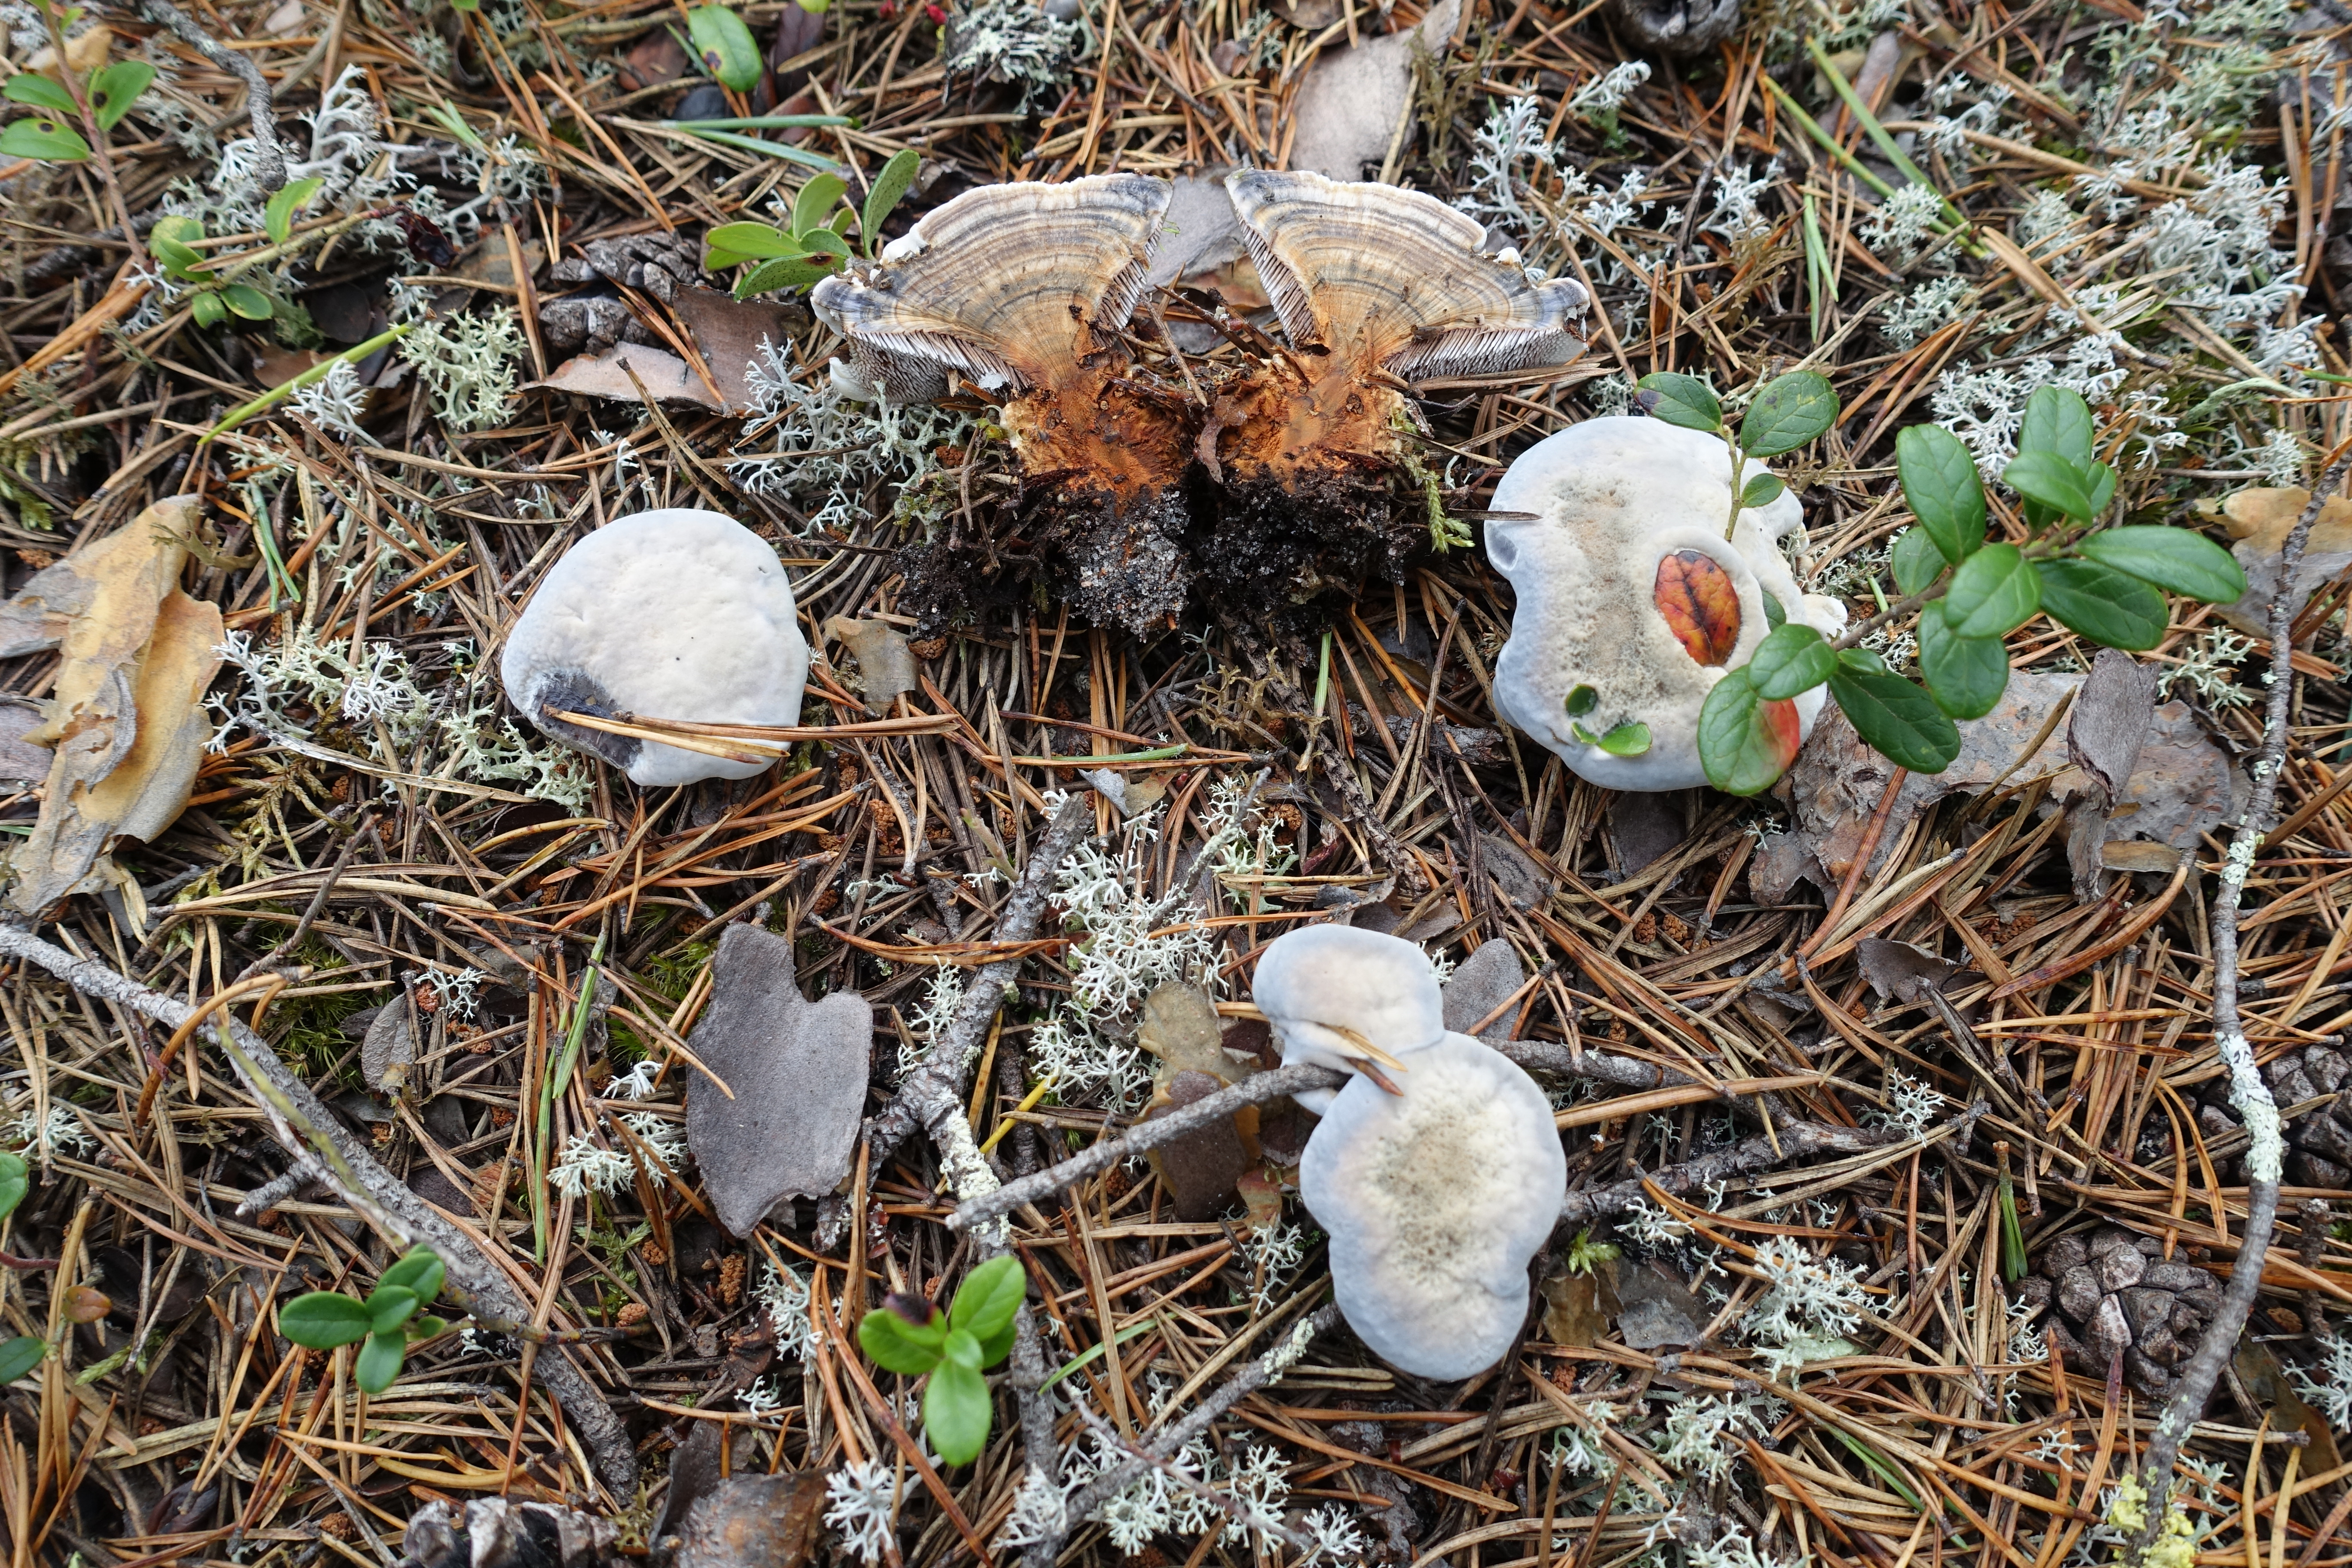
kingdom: Fungi
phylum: Basidiomycota
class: Agaricomycetes
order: Thelephorales
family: Bankeraceae
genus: Hydnellum
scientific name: Hydnellum caeruleum
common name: Blue corky spine fungus
